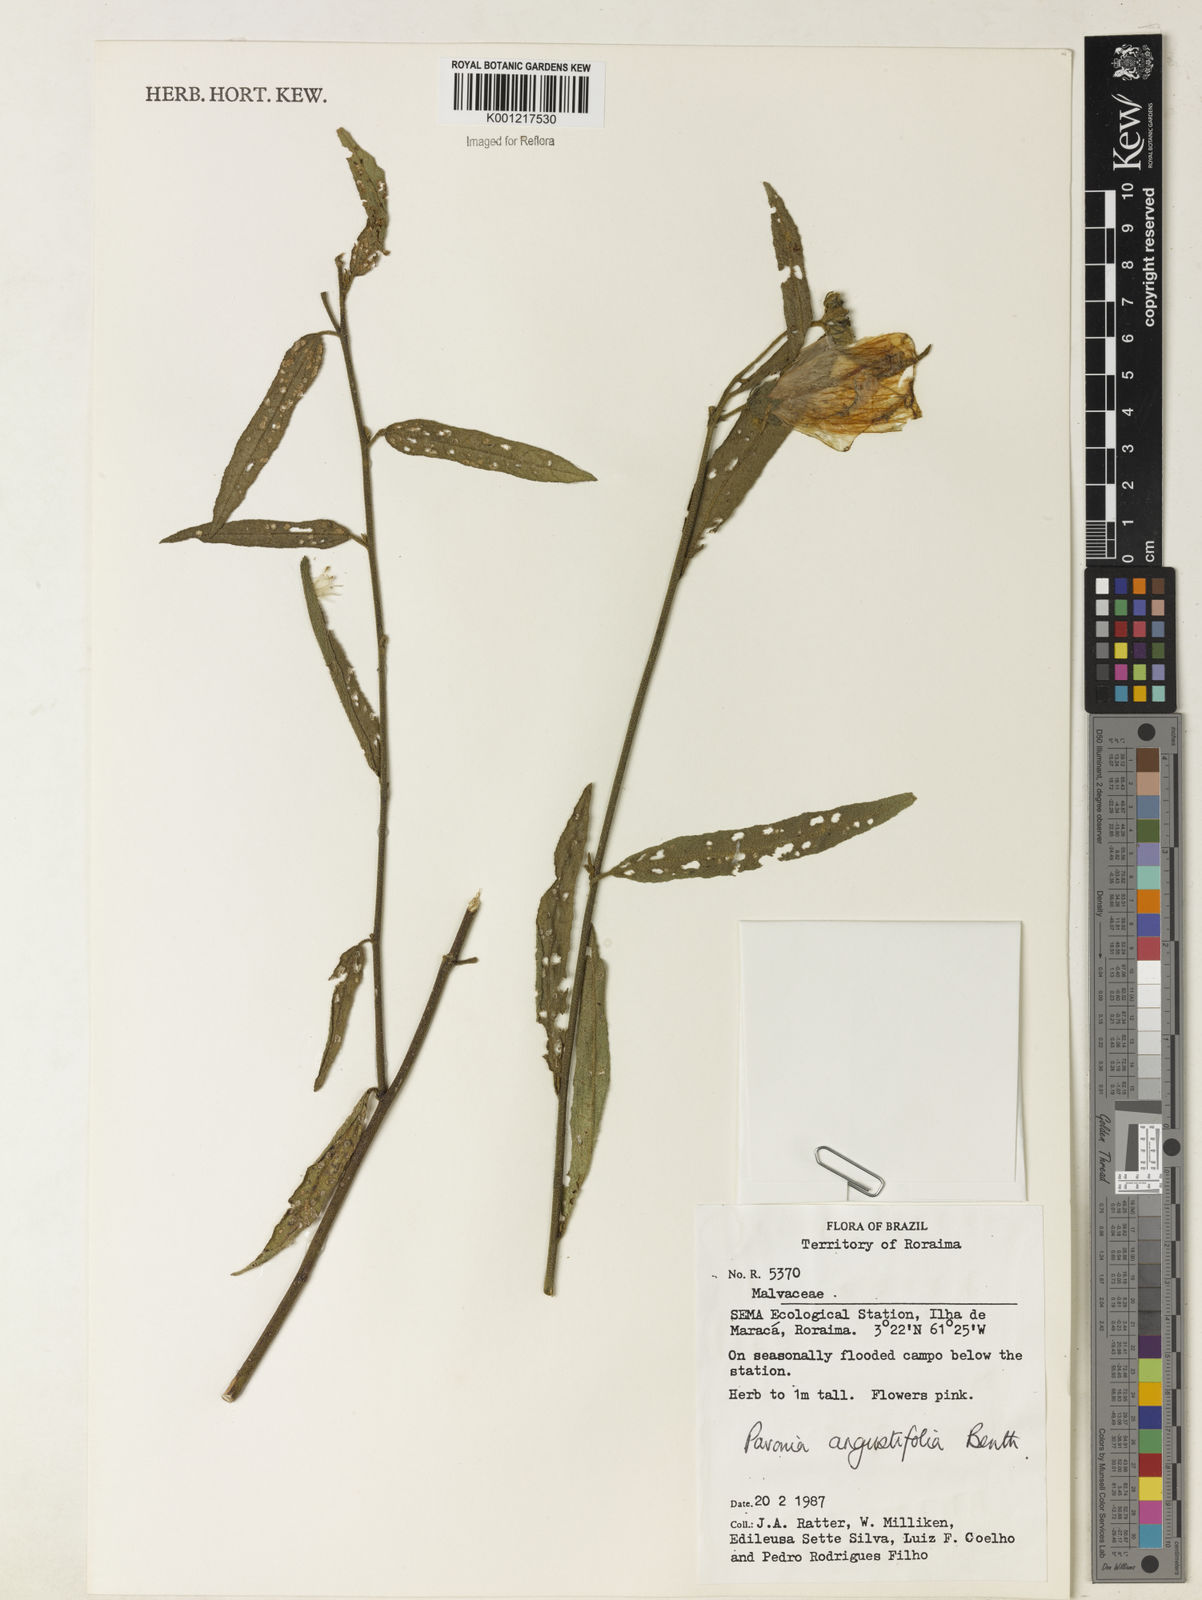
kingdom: Plantae
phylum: Tracheophyta
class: Magnoliopsida
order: Malvales
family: Malvaceae
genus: Pavonia
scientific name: Pavonia angustifolia
